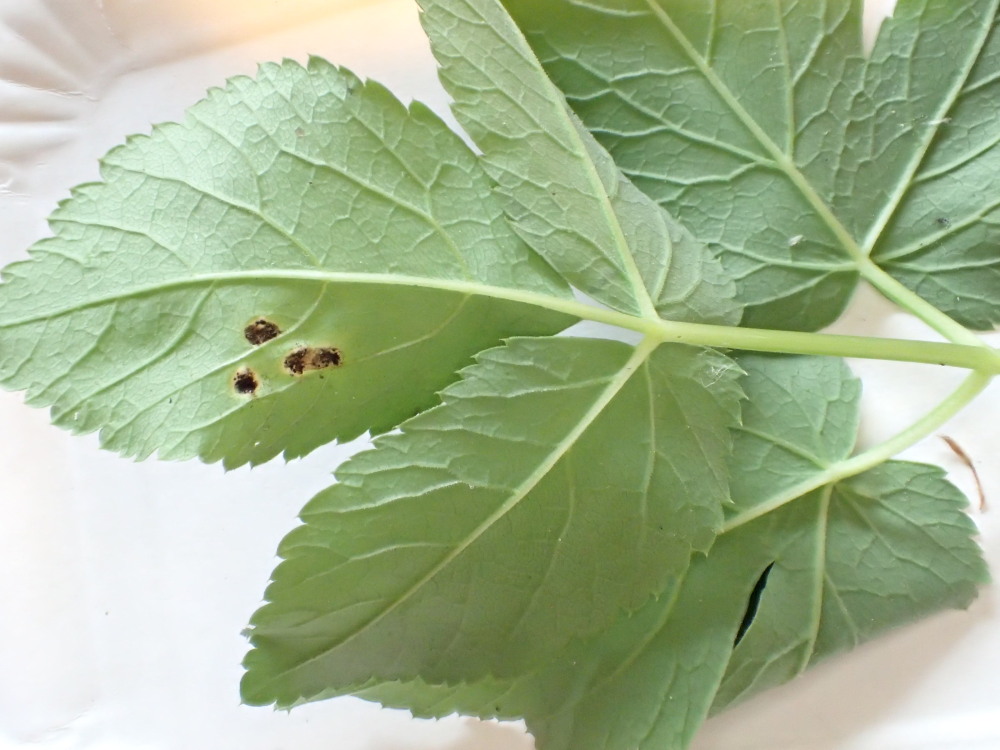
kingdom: Fungi
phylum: Basidiomycota
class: Pucciniomycetes
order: Pucciniales
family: Pucciniaceae
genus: Puccinia
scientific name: Puccinia
